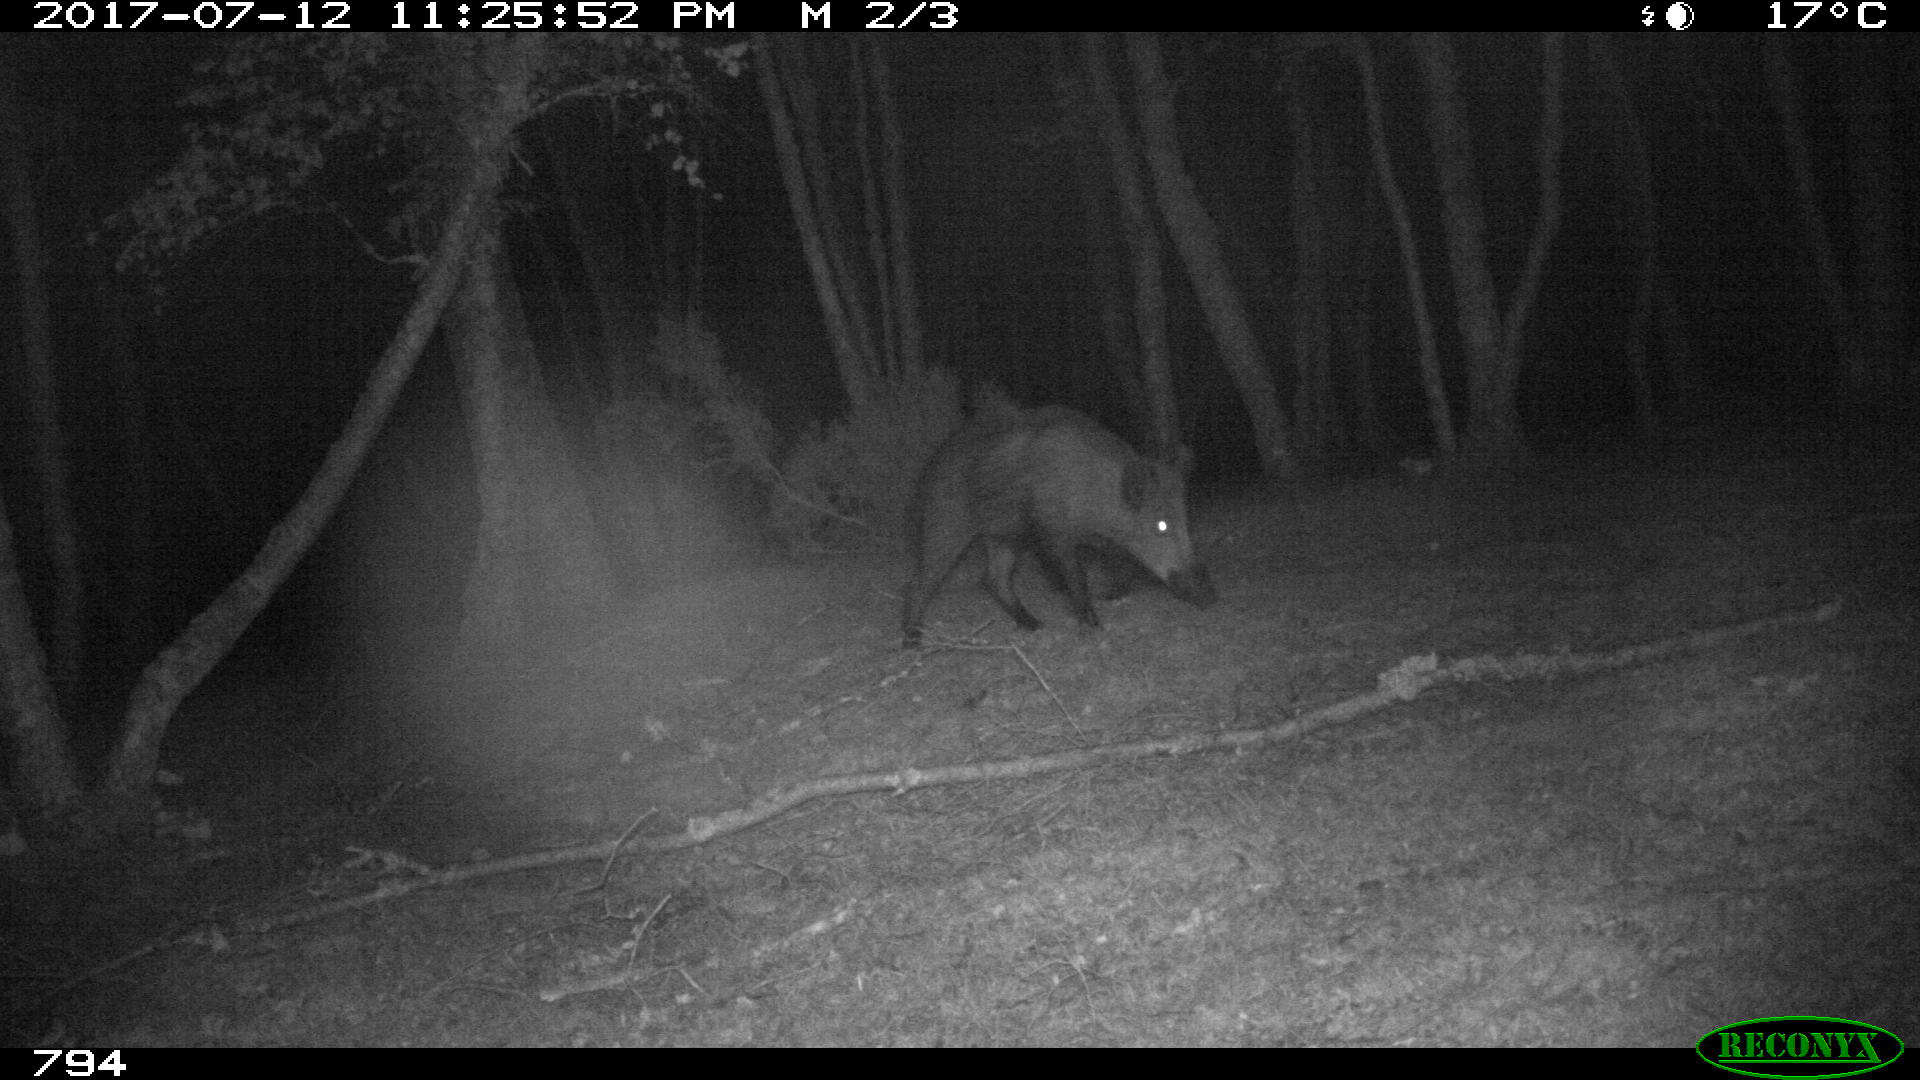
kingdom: Animalia
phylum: Chordata
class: Mammalia
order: Artiodactyla
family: Suidae
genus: Sus
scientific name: Sus scrofa
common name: Wild boar
